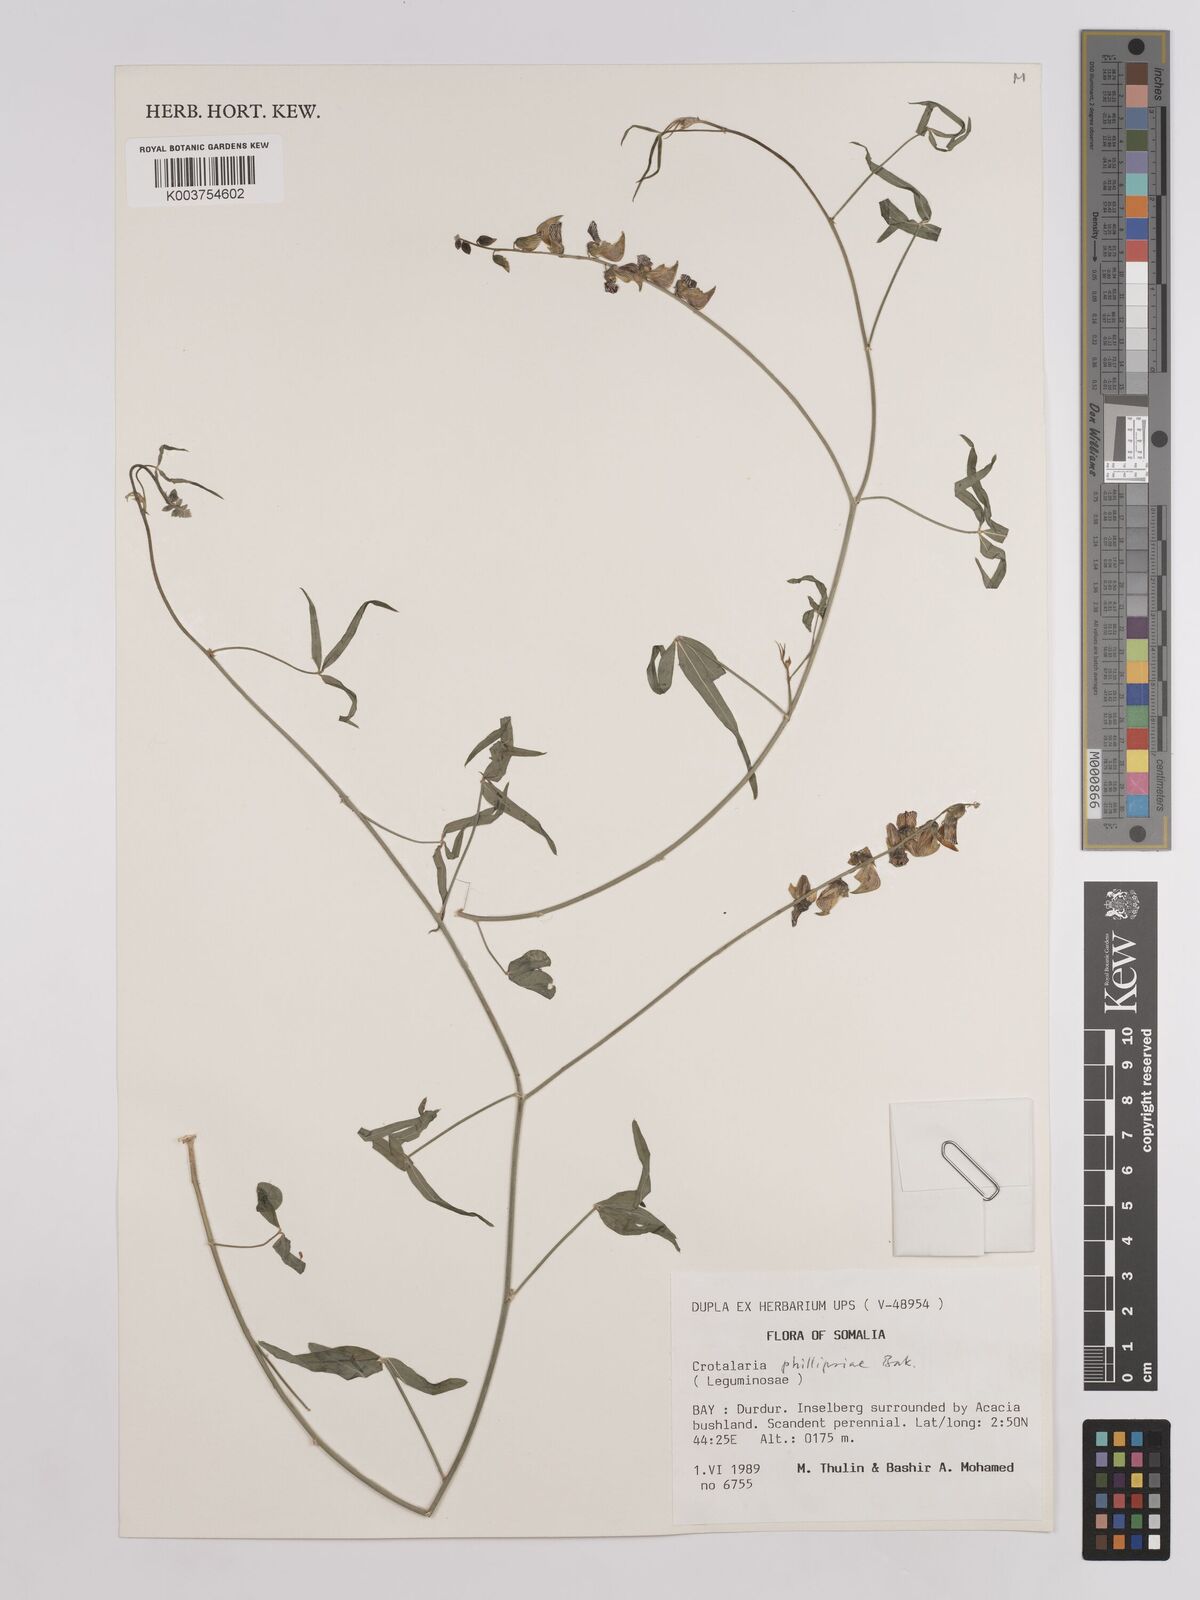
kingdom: Plantae
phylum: Tracheophyta
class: Magnoliopsida
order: Fabales
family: Fabaceae
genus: Crotalaria
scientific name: Crotalaria phillipsiae
